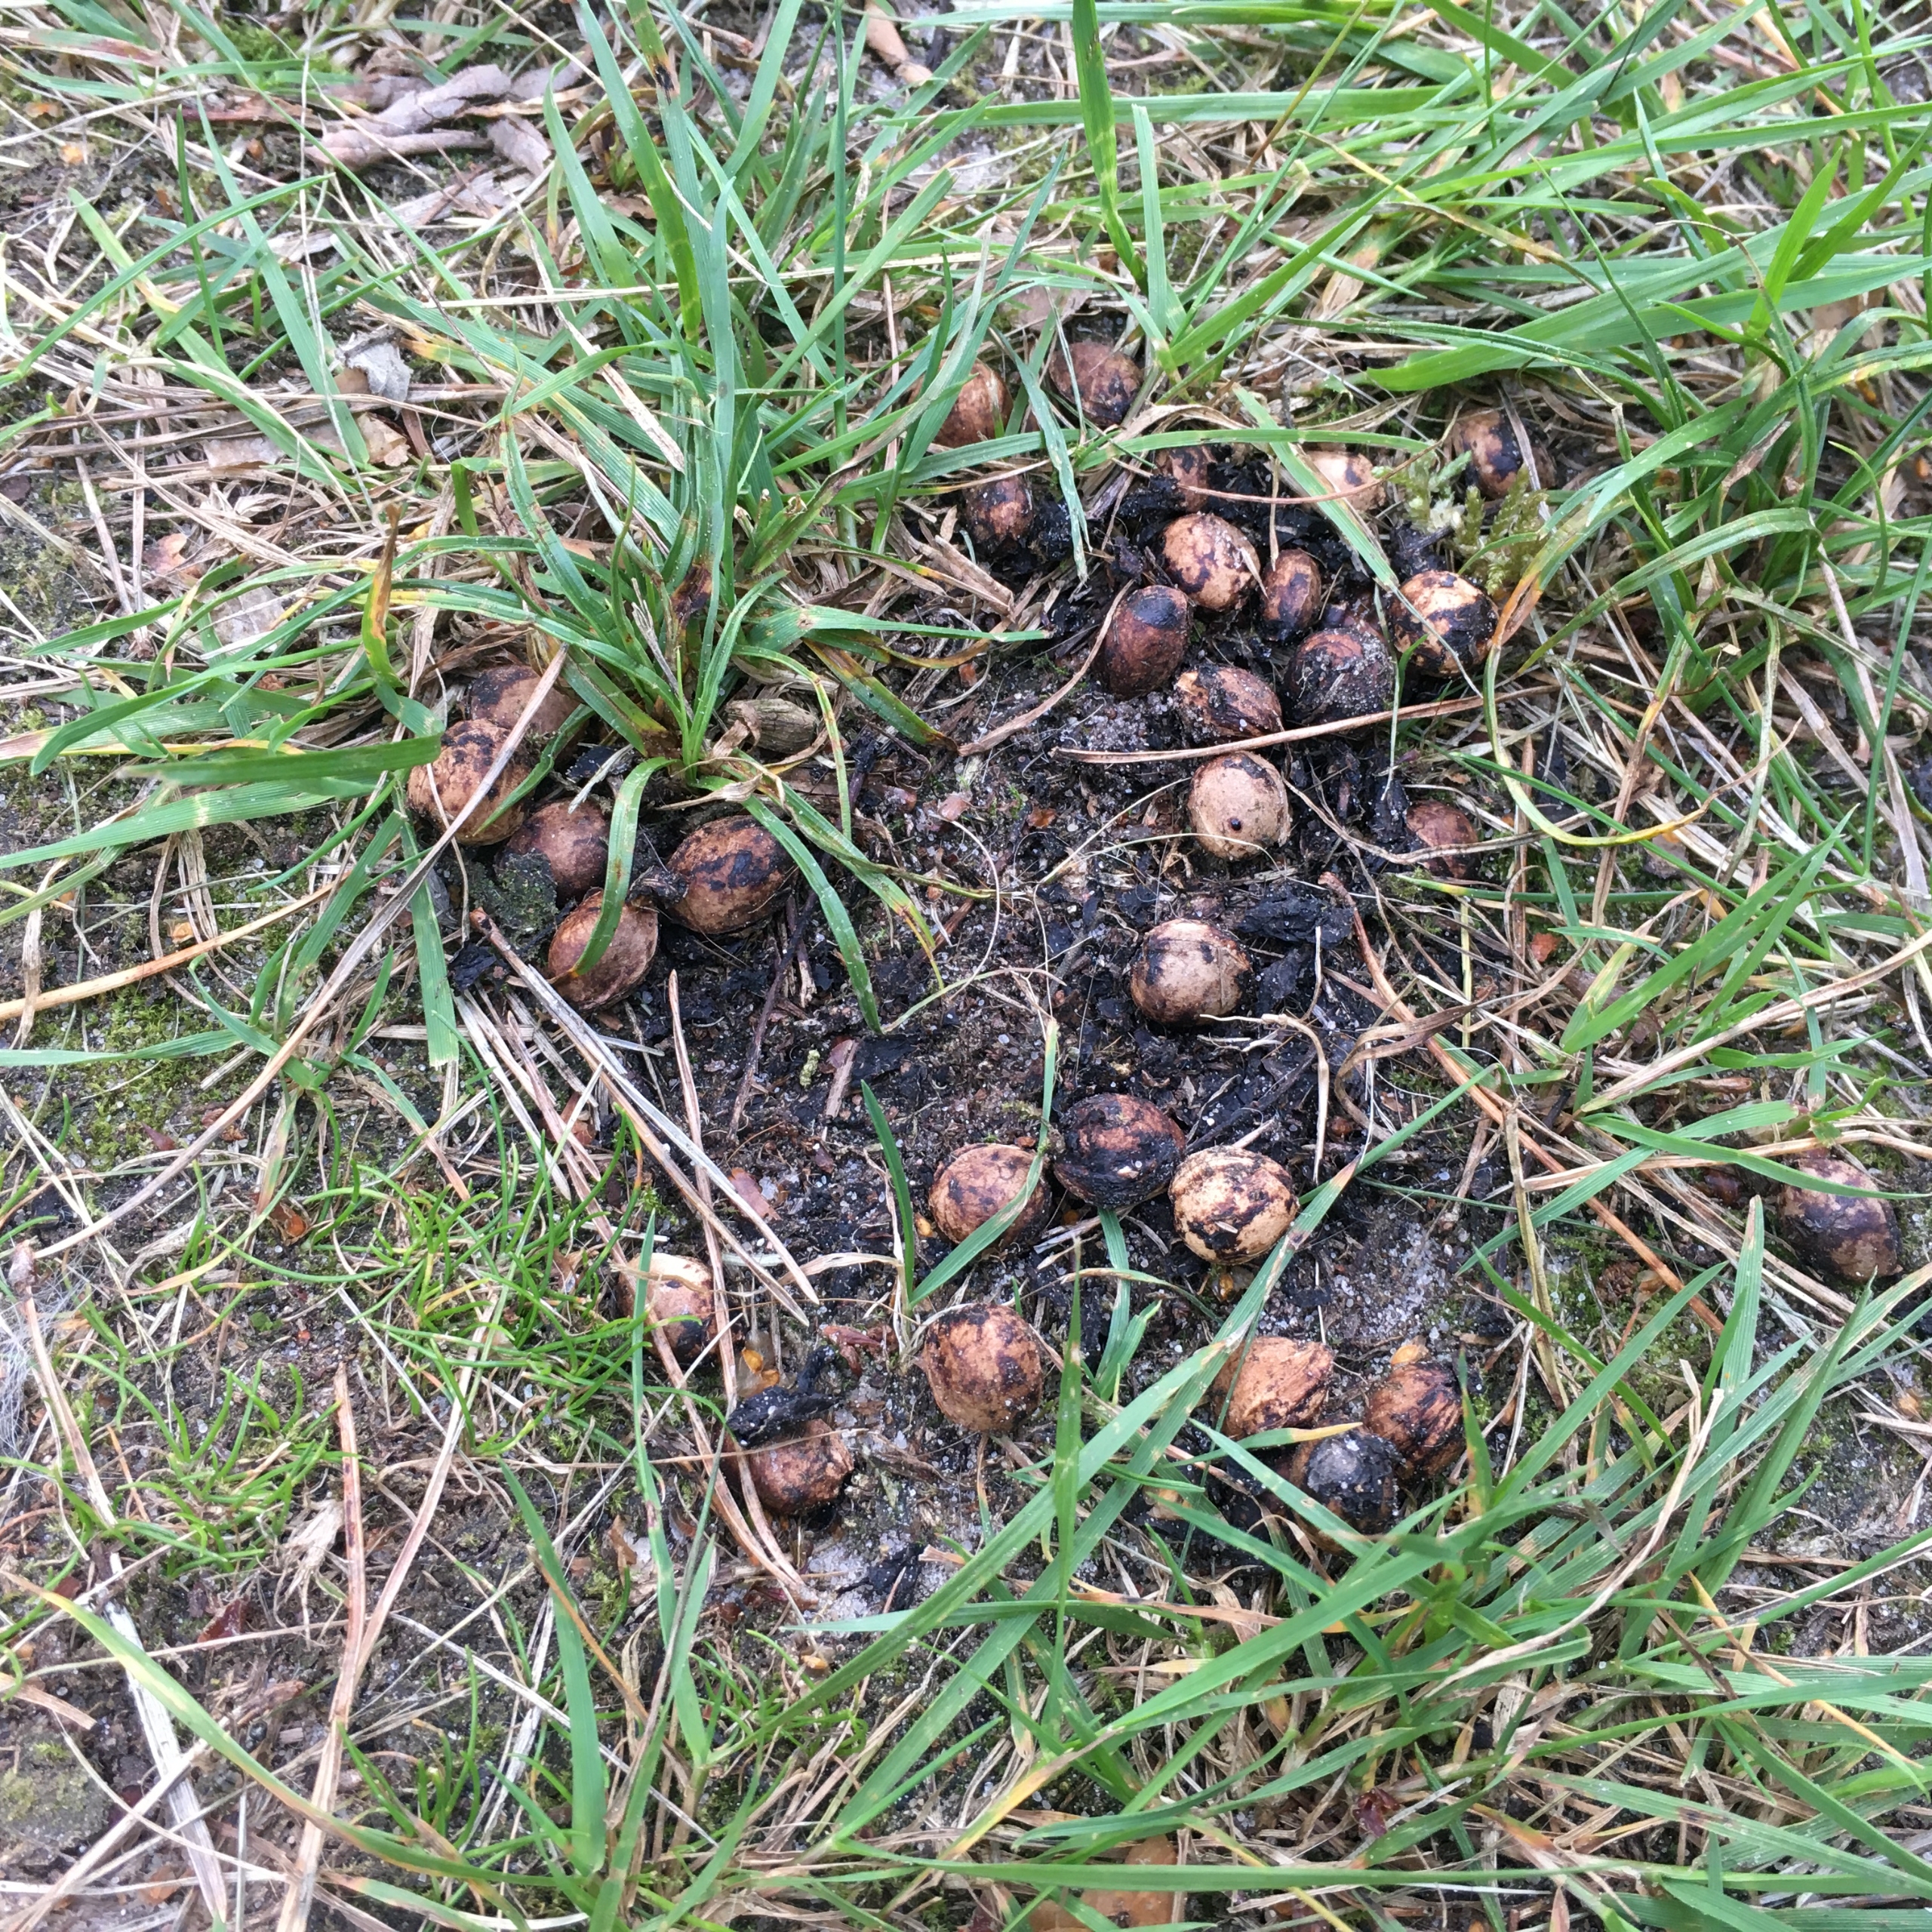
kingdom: Animalia
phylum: Chordata
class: Mammalia
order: Carnivora
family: Canidae
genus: Vulpes
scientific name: Vulpes vulpes
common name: Ræv
